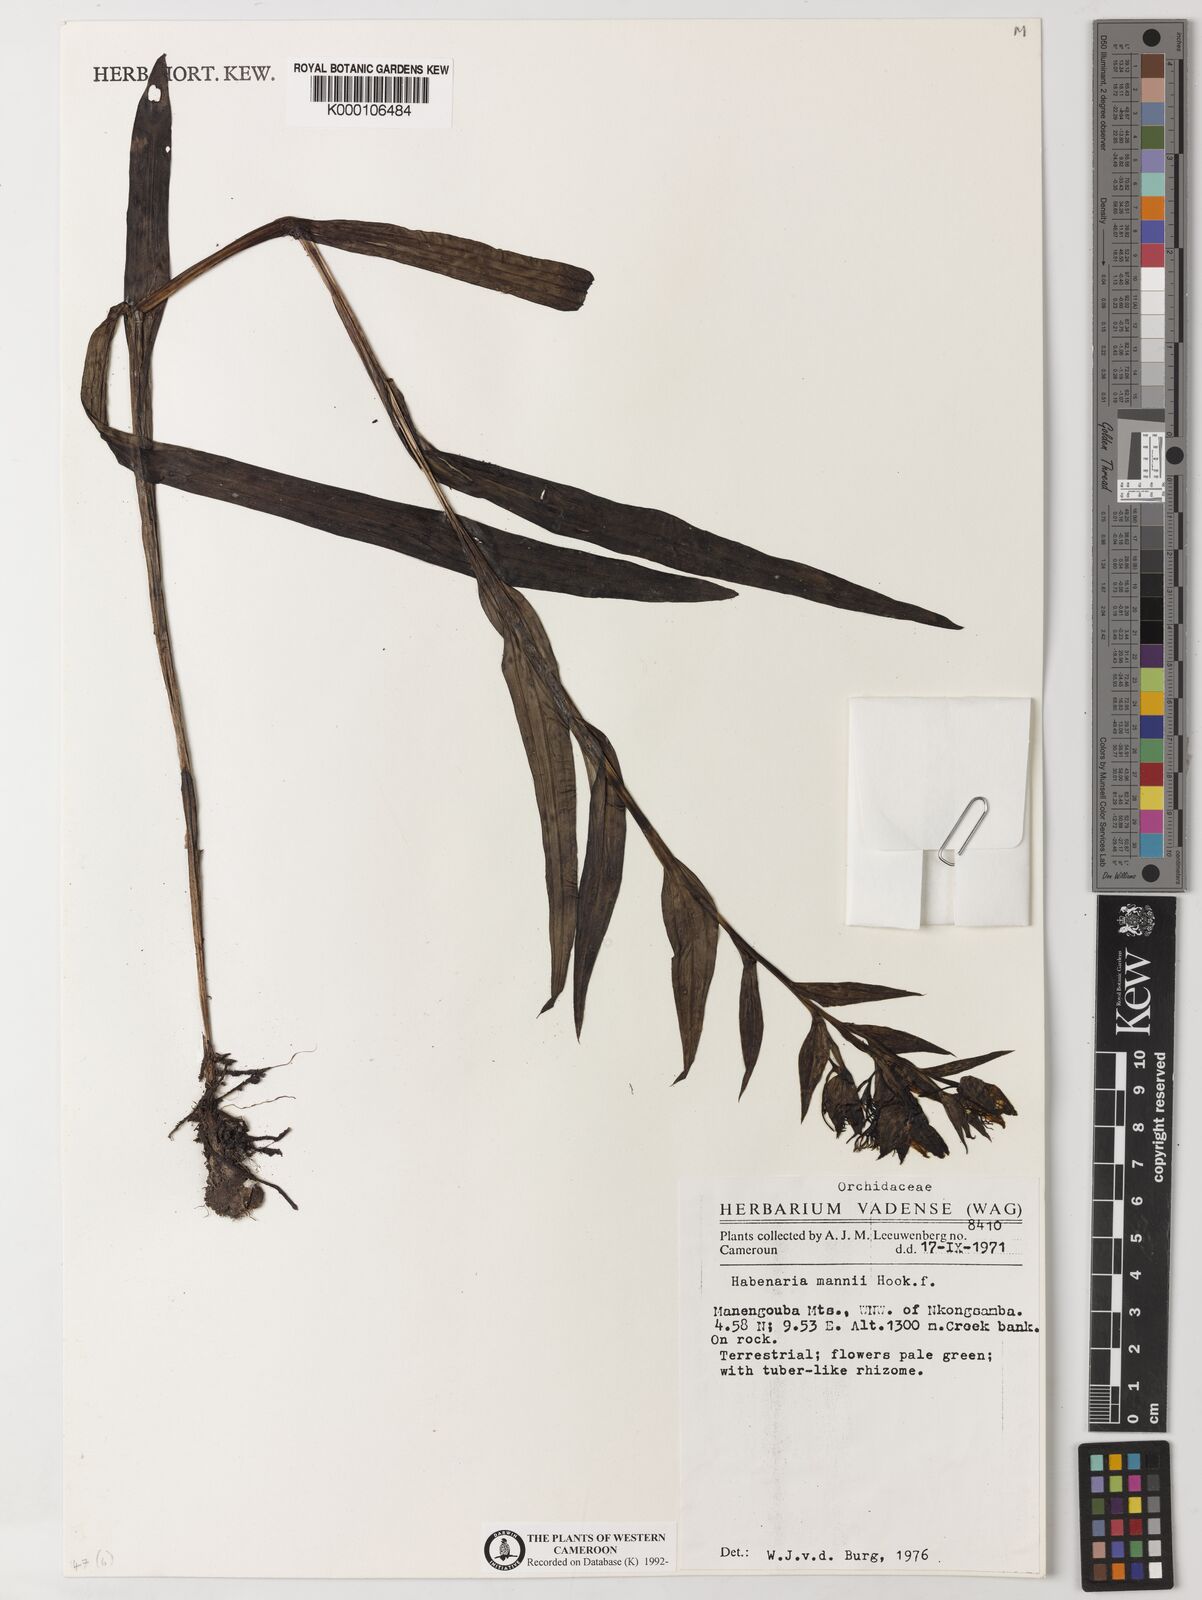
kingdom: Plantae
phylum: Tracheophyta
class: Liliopsida
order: Asparagales
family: Orchidaceae
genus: Habenaria
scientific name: Habenaria mannii
